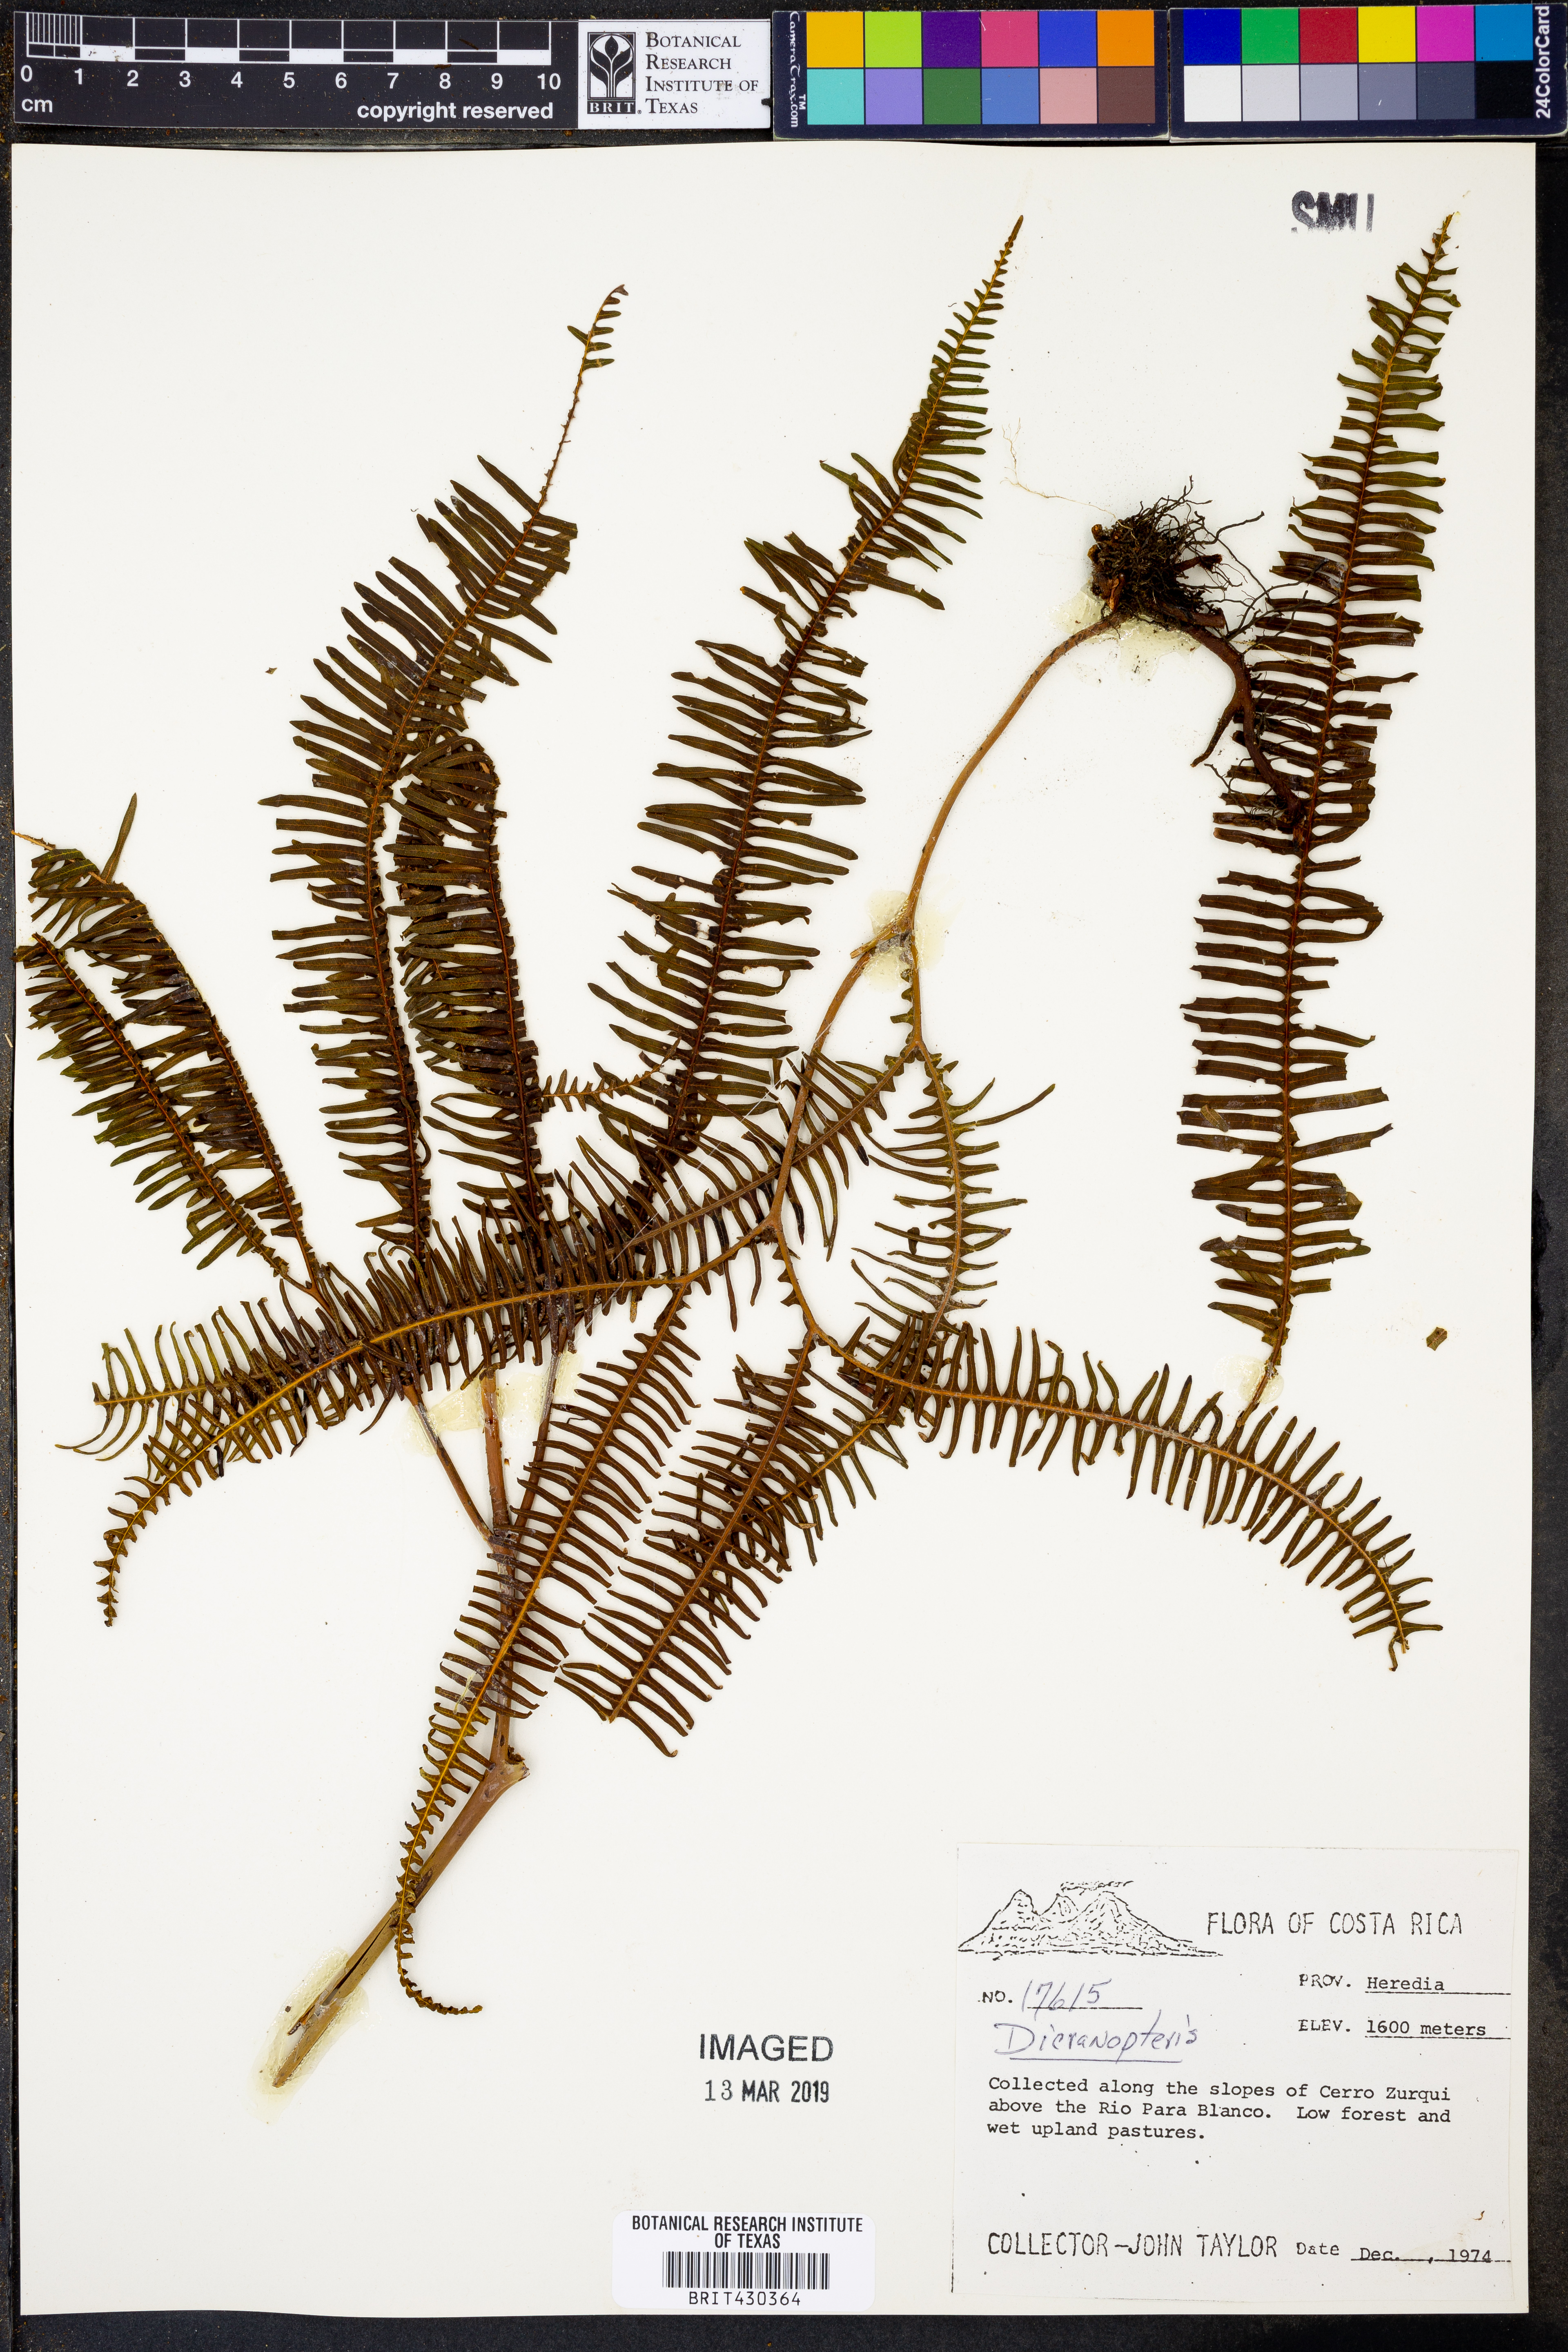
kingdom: Plantae
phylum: Tracheophyta
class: Polypodiopsida
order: Gleicheniales
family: Gleicheniaceae
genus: Dicranopteris
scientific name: Dicranopteris
